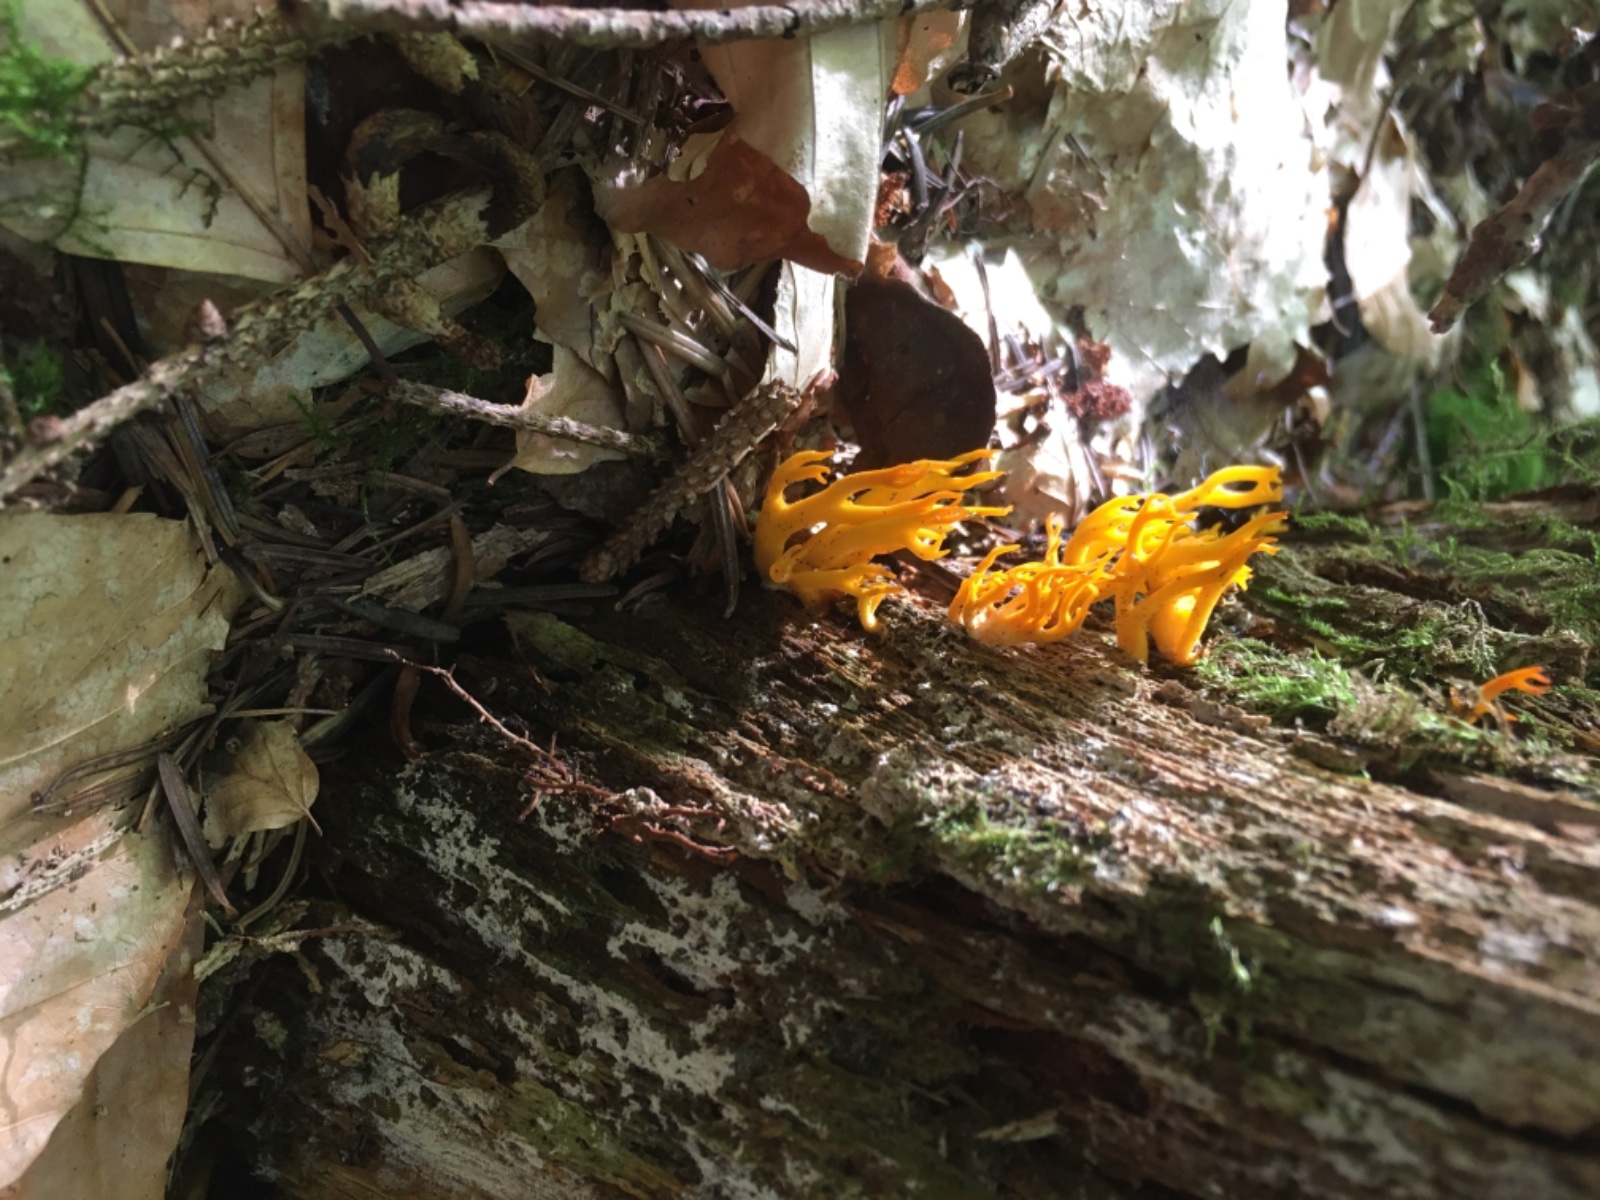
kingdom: Fungi
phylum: Basidiomycota
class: Dacrymycetes
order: Dacrymycetales
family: Dacrymycetaceae
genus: Calocera
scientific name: Calocera viscosa
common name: almindelig guldgaffel
